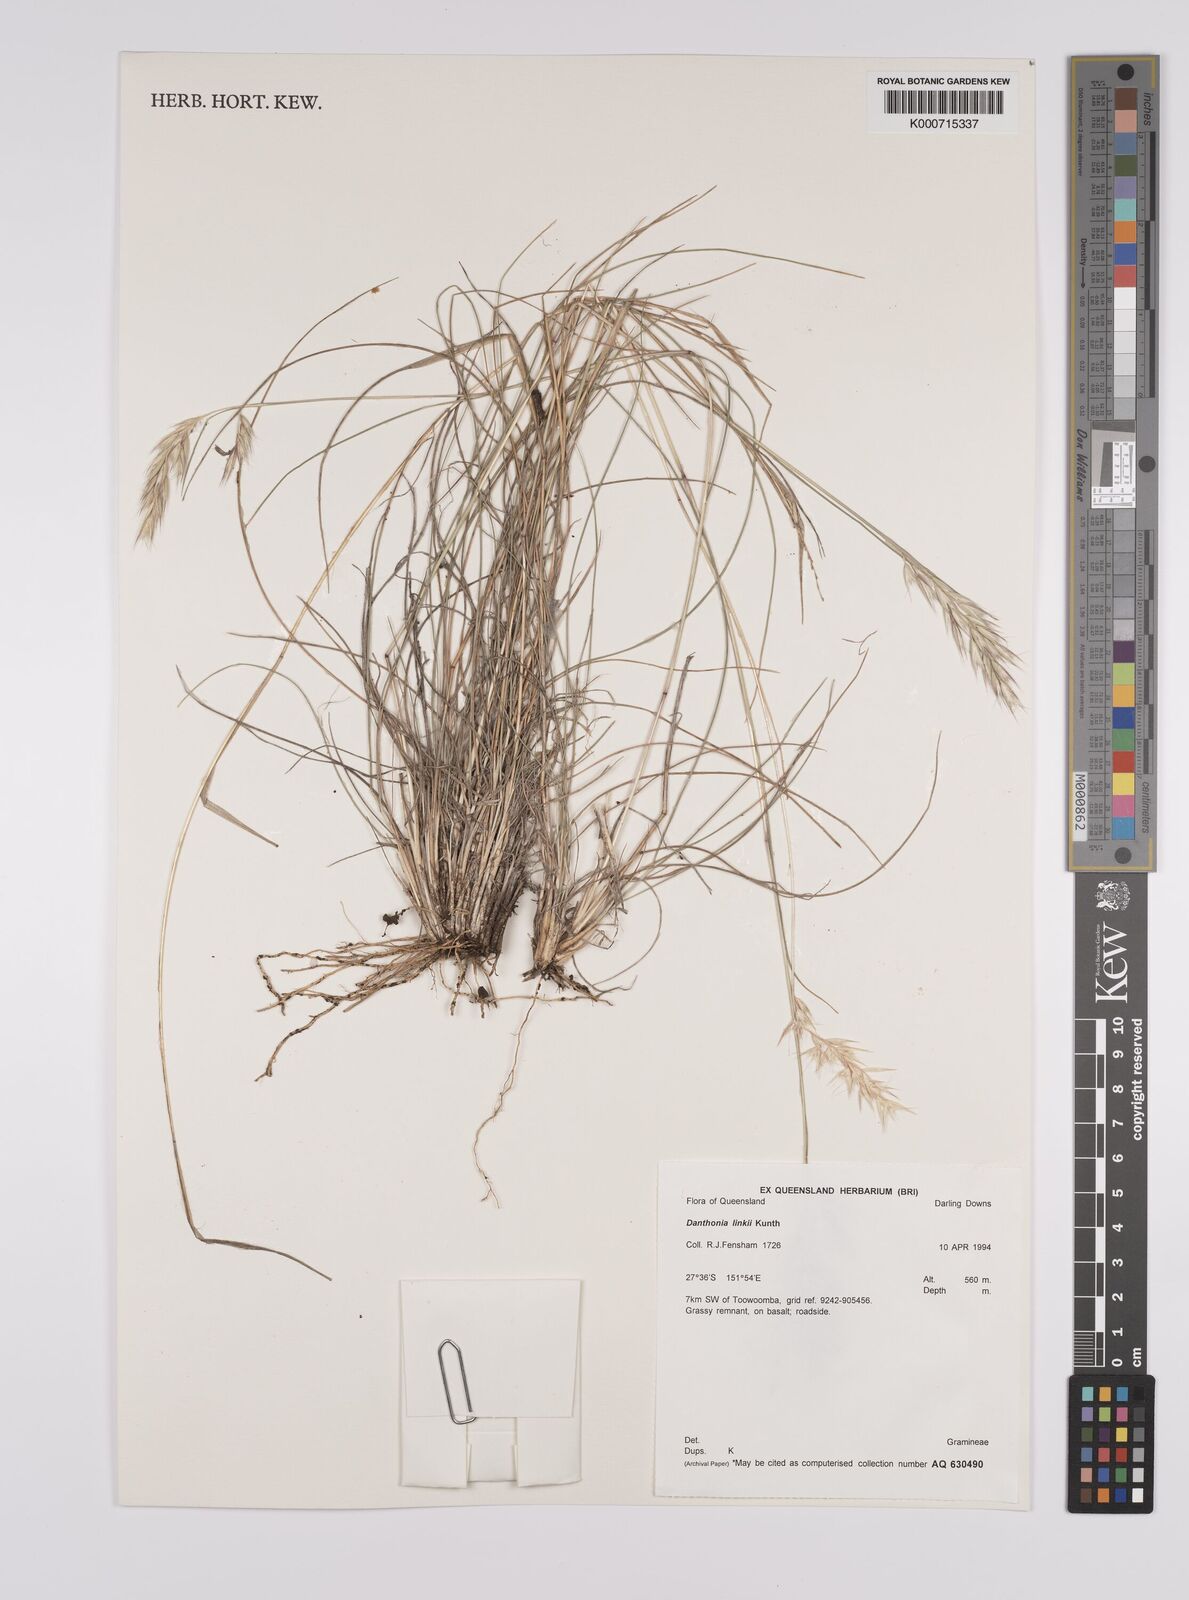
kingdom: Plantae
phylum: Tracheophyta
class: Liliopsida
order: Poales
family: Poaceae
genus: Rytidosperma
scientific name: Rytidosperma bipartitum
